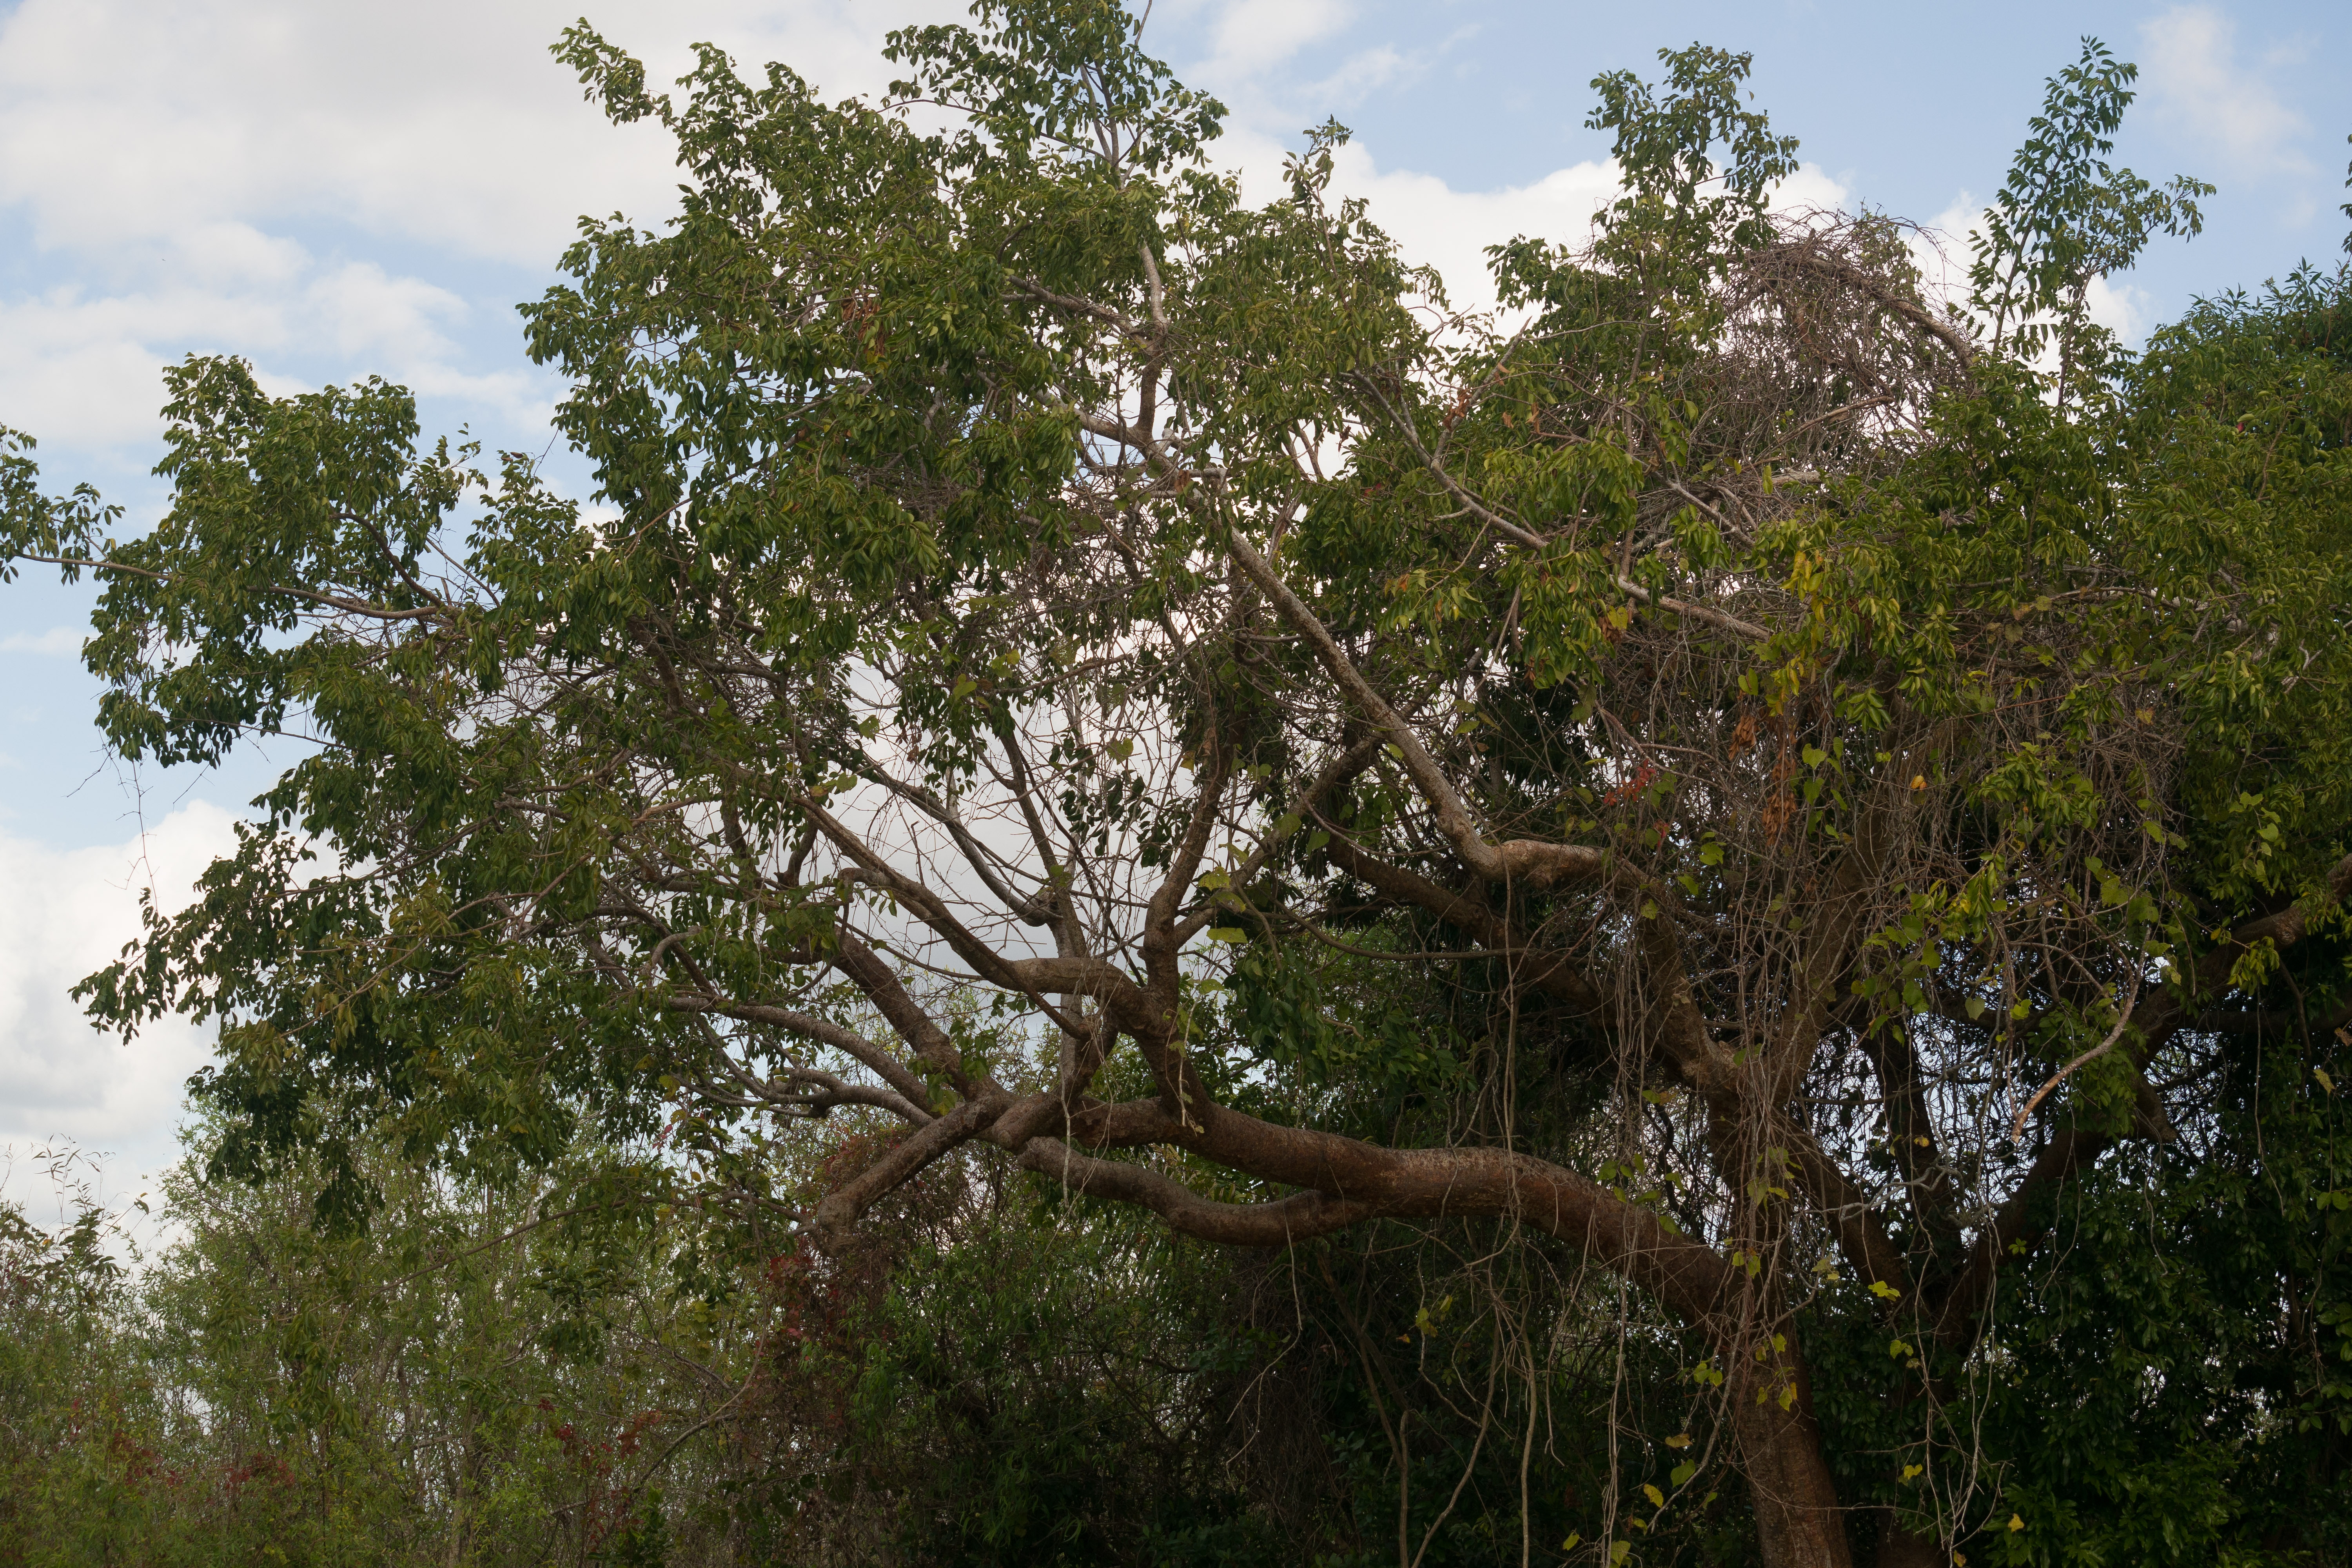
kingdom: Plantae
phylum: Tracheophyta
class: Magnoliopsida
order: Sapindales
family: Burseraceae
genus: Bursera
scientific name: Bursera simaruba
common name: Tourist tree
